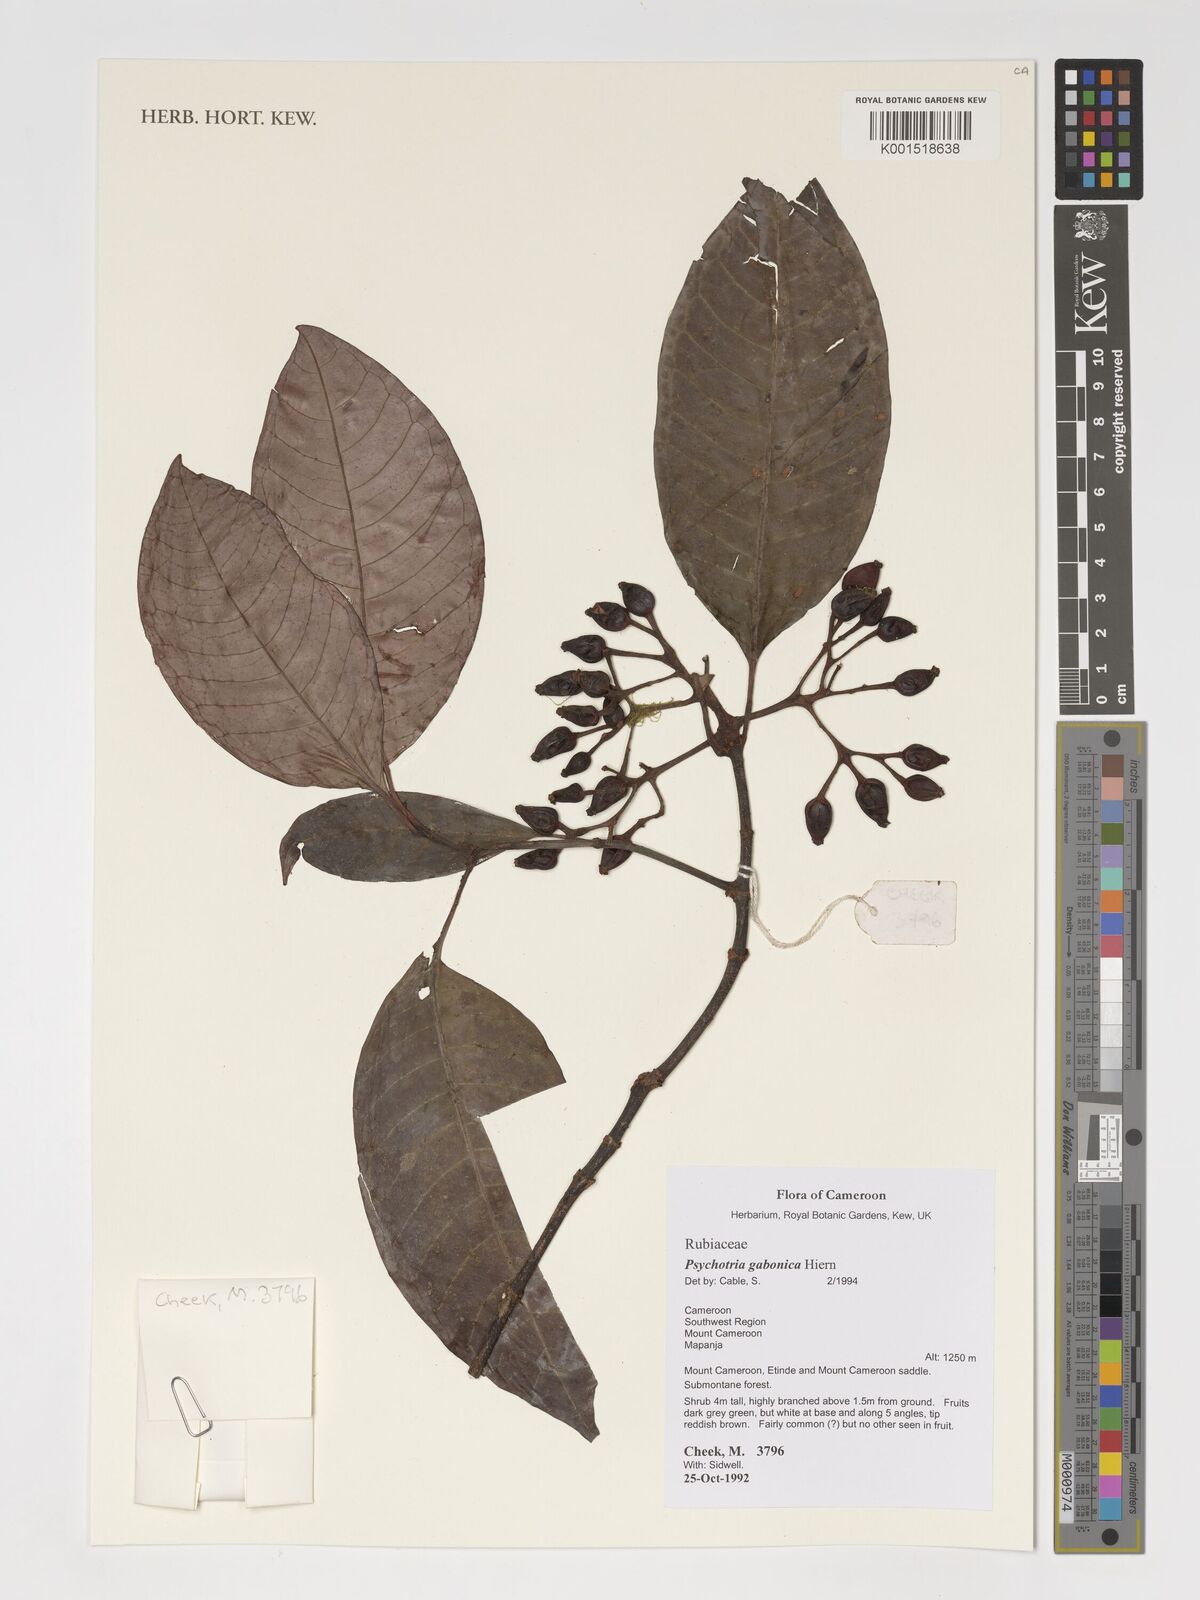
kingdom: Plantae
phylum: Tracheophyta
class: Magnoliopsida
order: Gentianales
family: Rubiaceae
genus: Psychotria
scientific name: Psychotria gabonica
